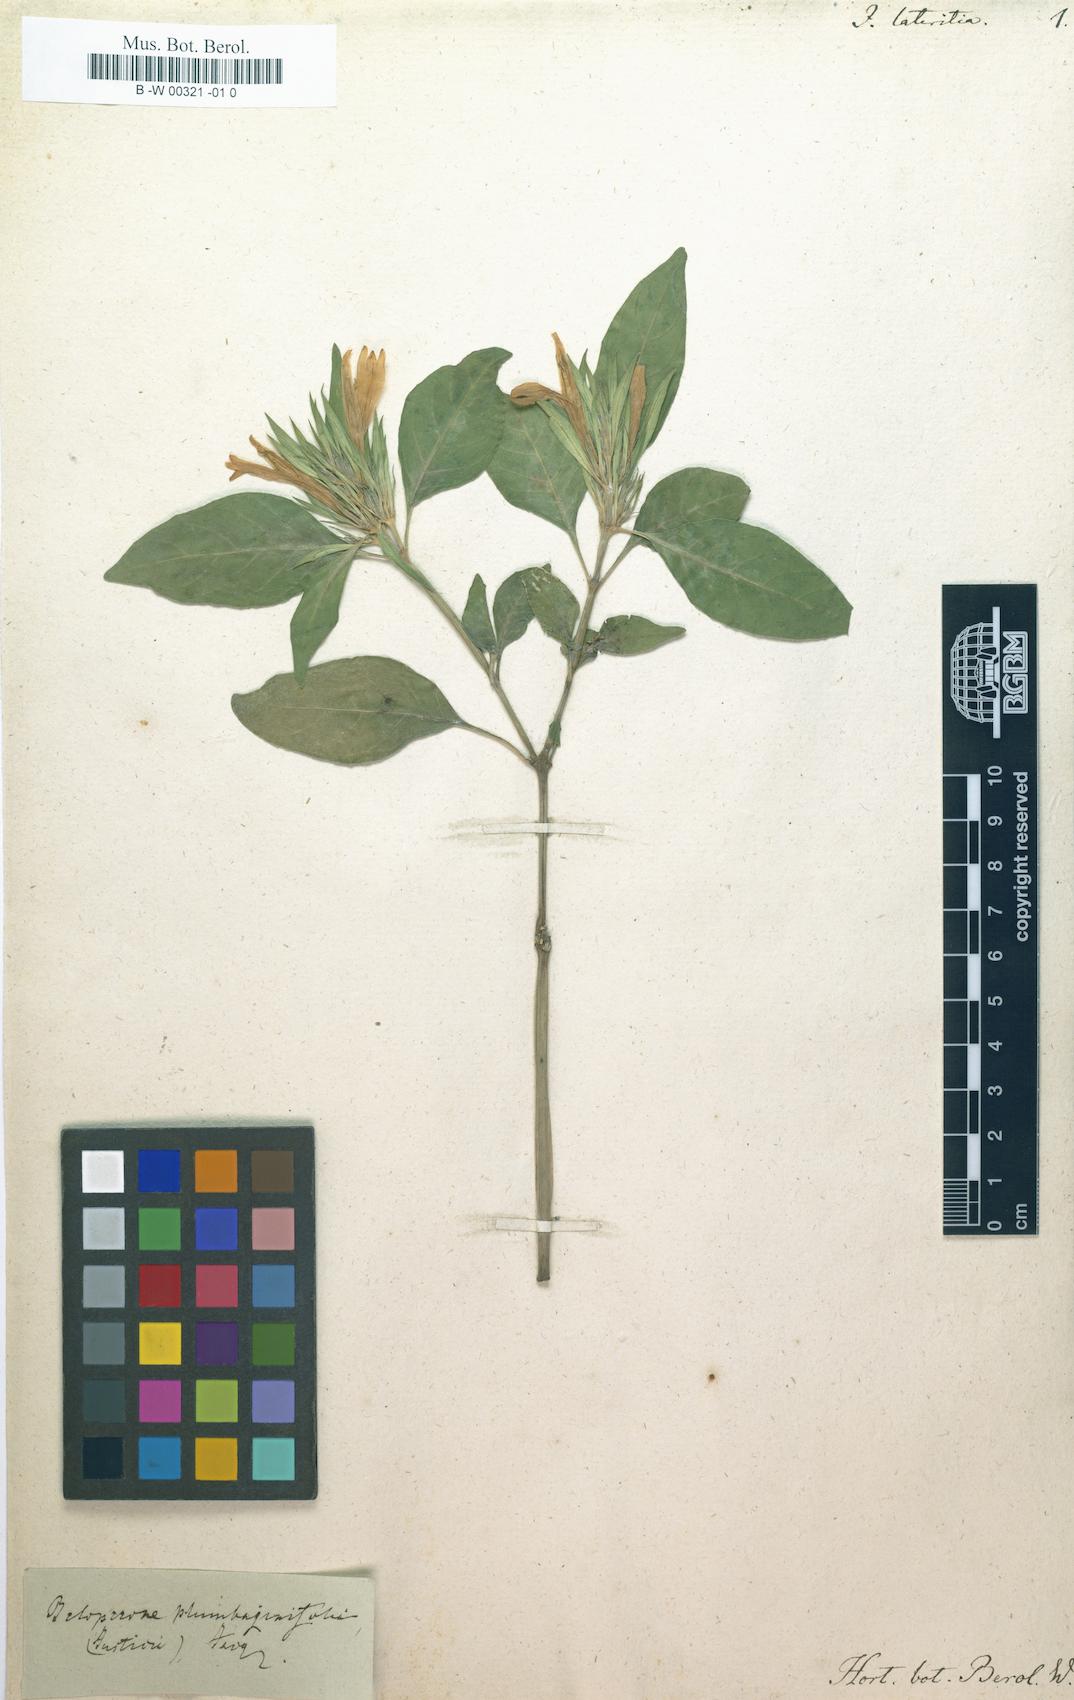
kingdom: Plantae
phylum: Tracheophyta
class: Magnoliopsida
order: Lamiales
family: Acanthaceae
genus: Justicia
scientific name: Justicia plumbaginifolia
